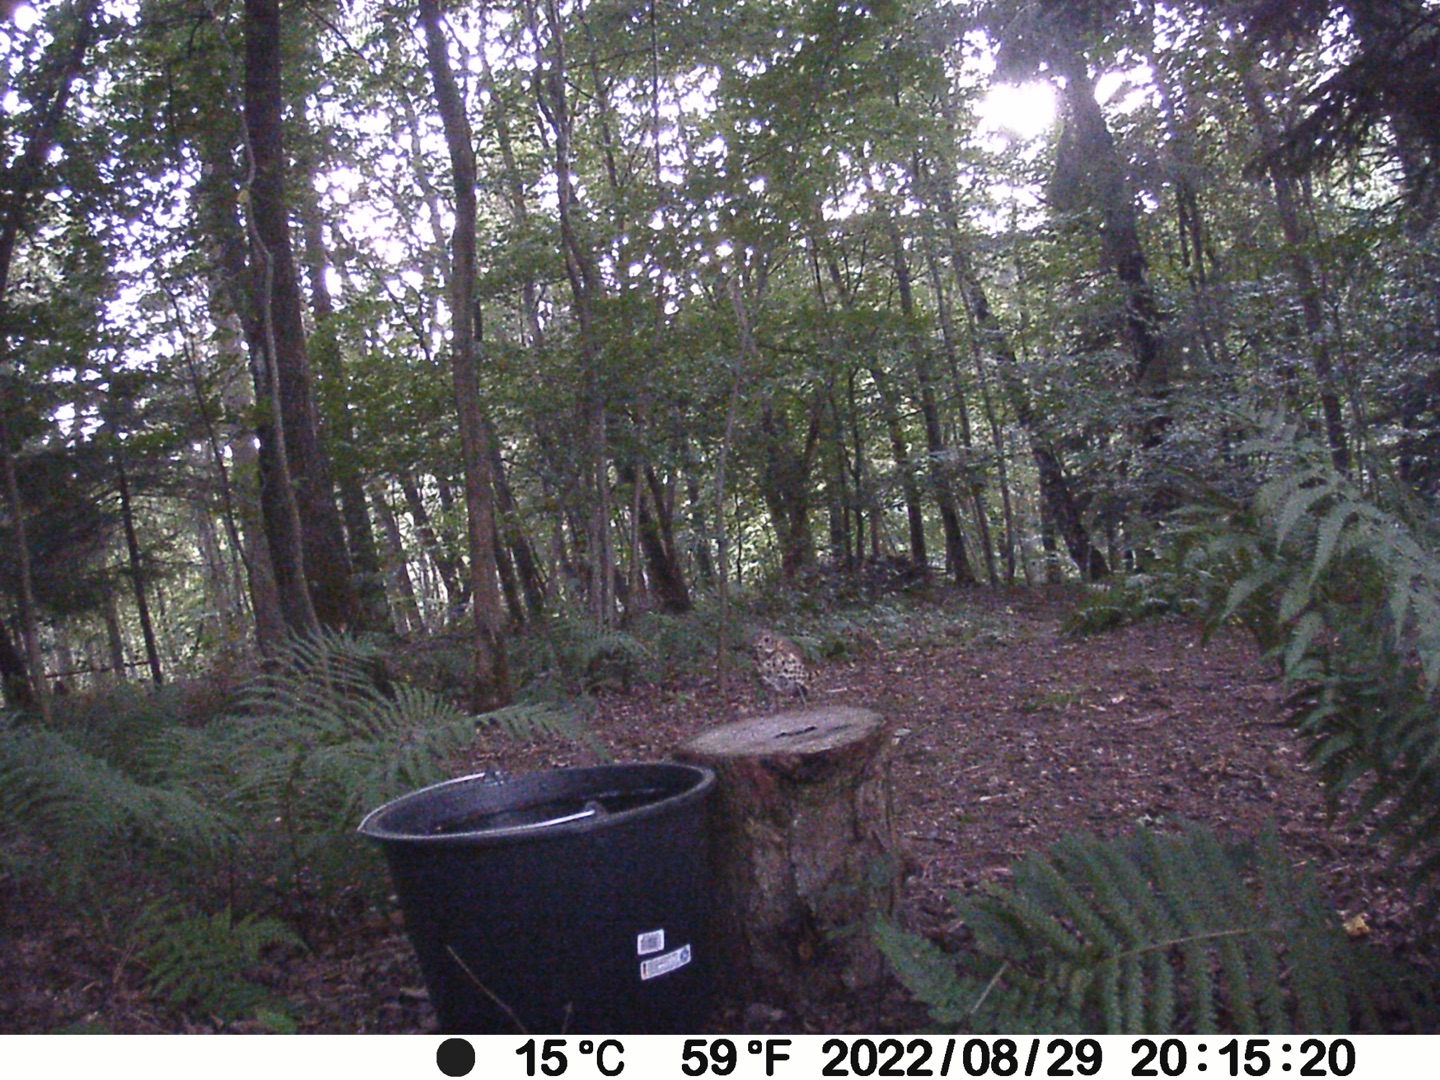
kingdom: Animalia
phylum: Chordata
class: Aves
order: Passeriformes
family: Turdidae
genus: Turdus
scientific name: Turdus philomelos
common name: Sangdrossel
